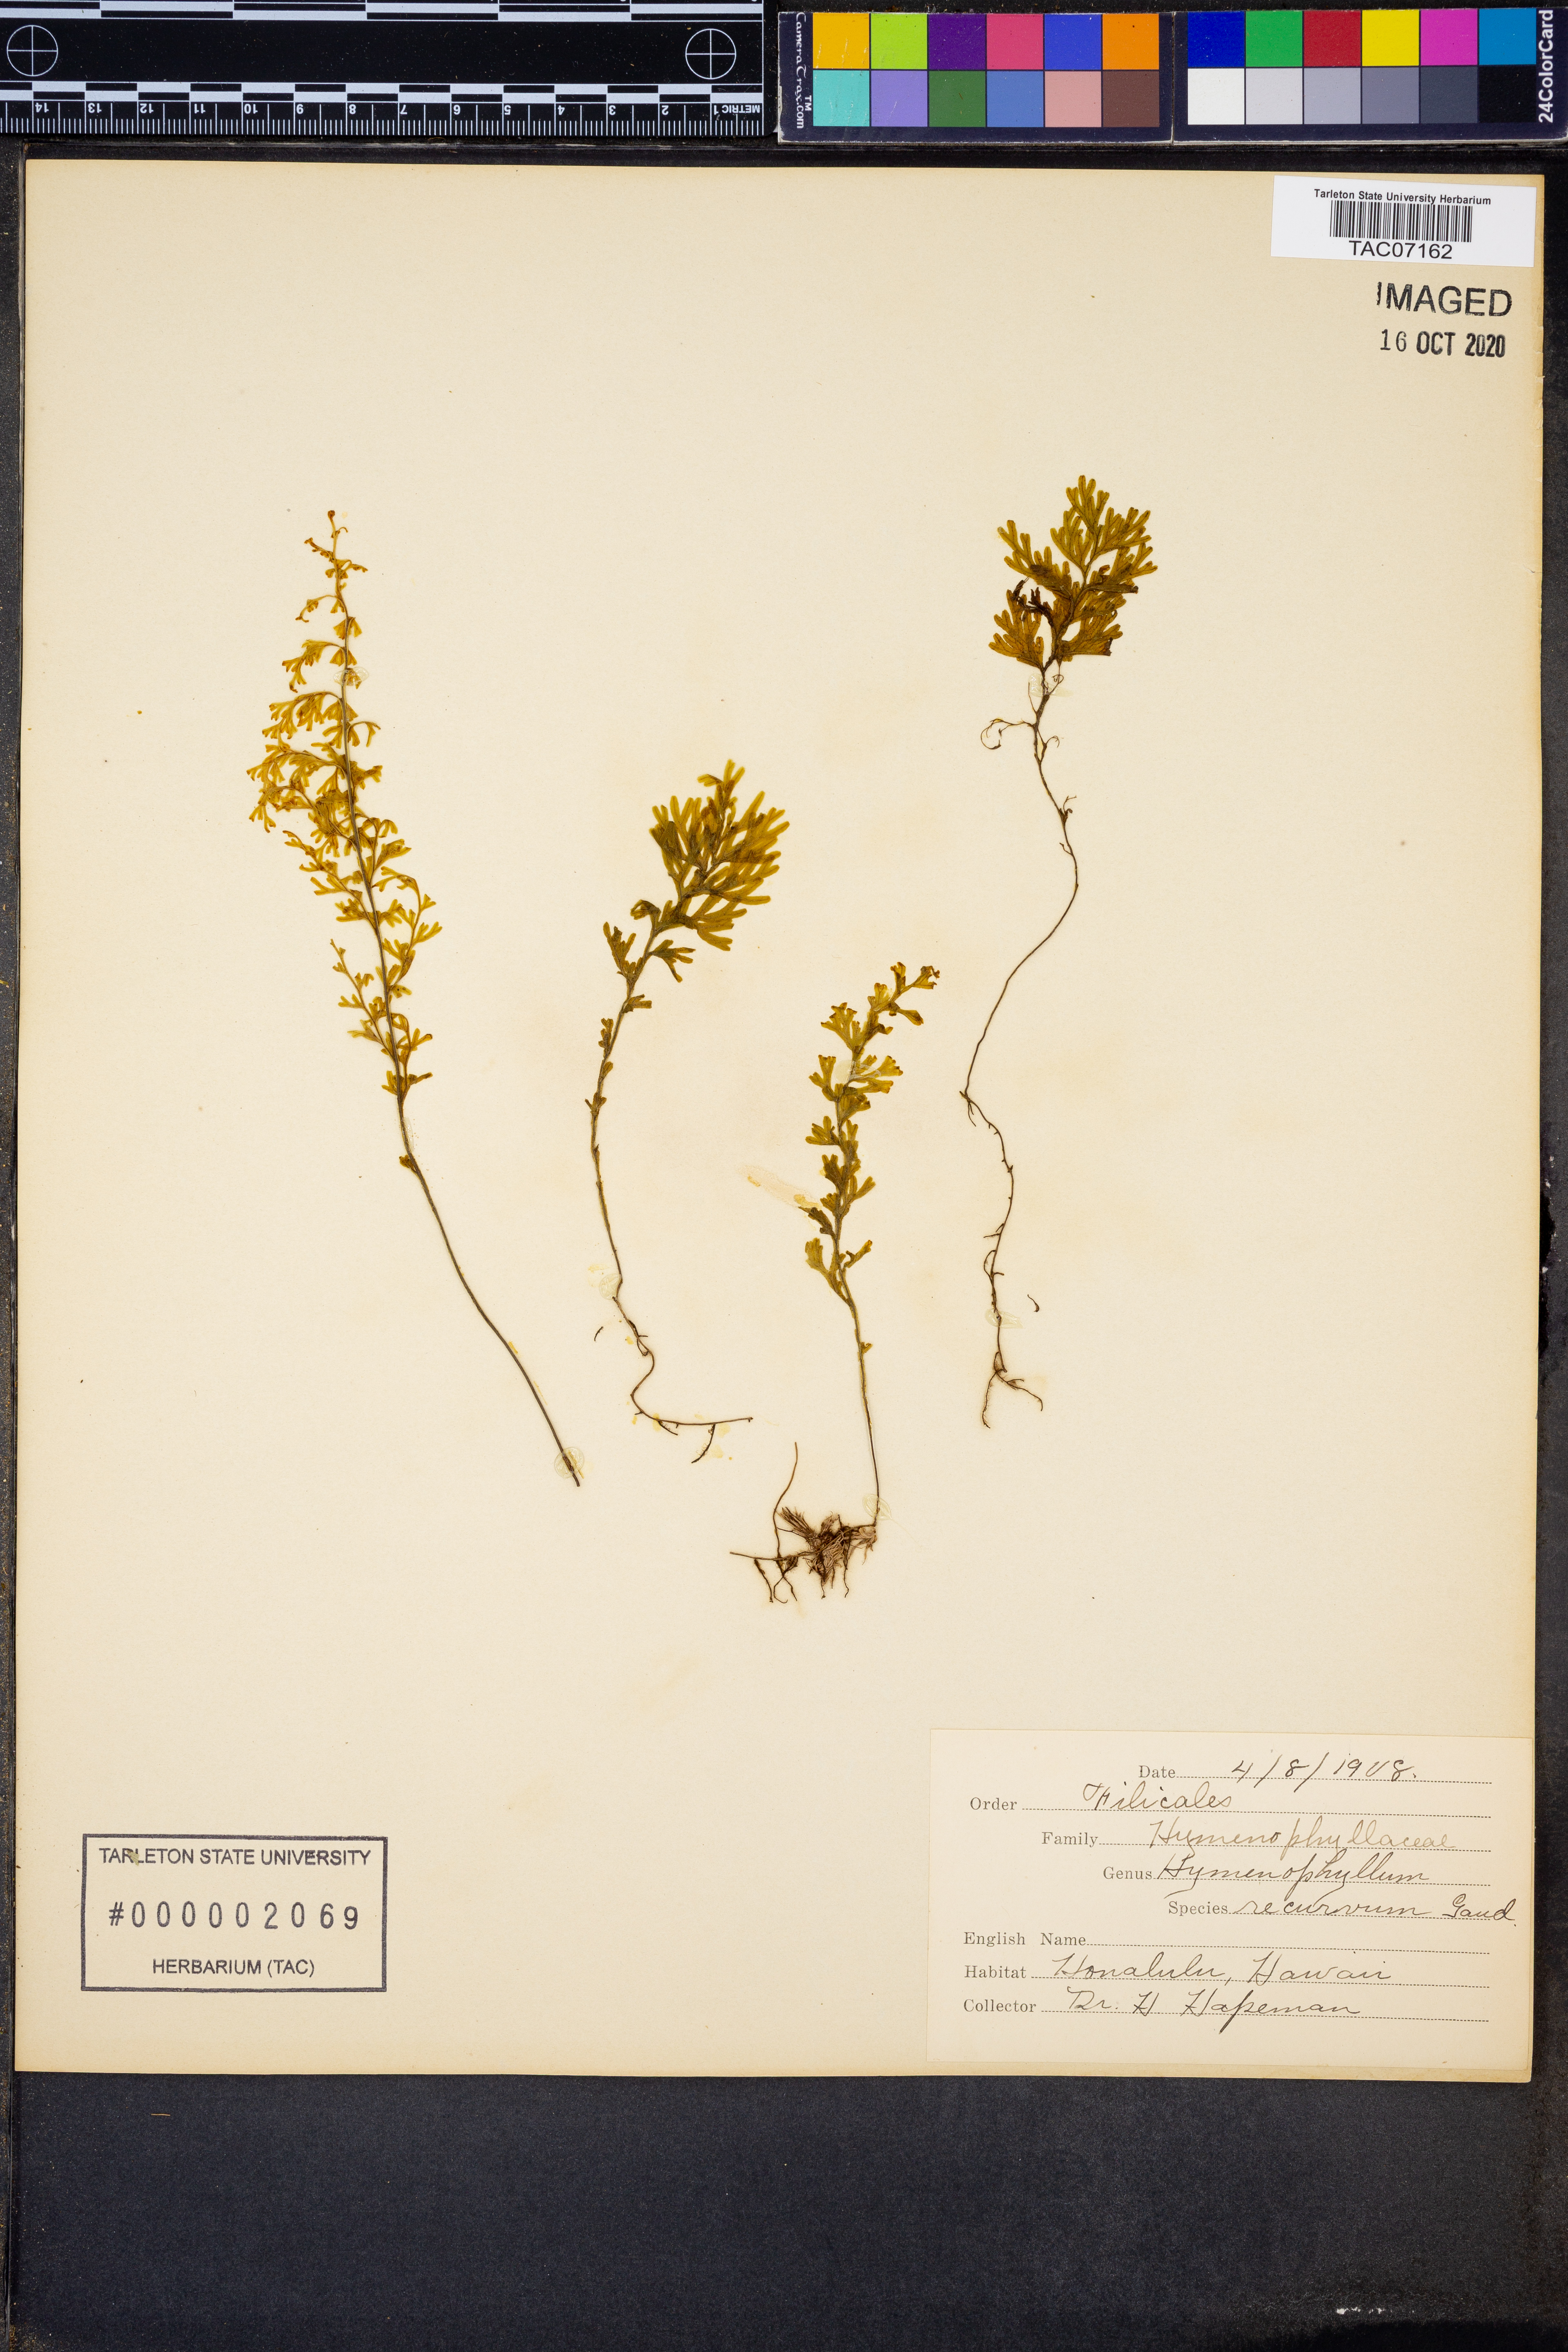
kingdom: Plantae
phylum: Tracheophyta
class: Polypodiopsida
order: Hymenophyllales
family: Hymenophyllaceae
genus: Hymenophyllum
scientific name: Hymenophyllum recurvum
